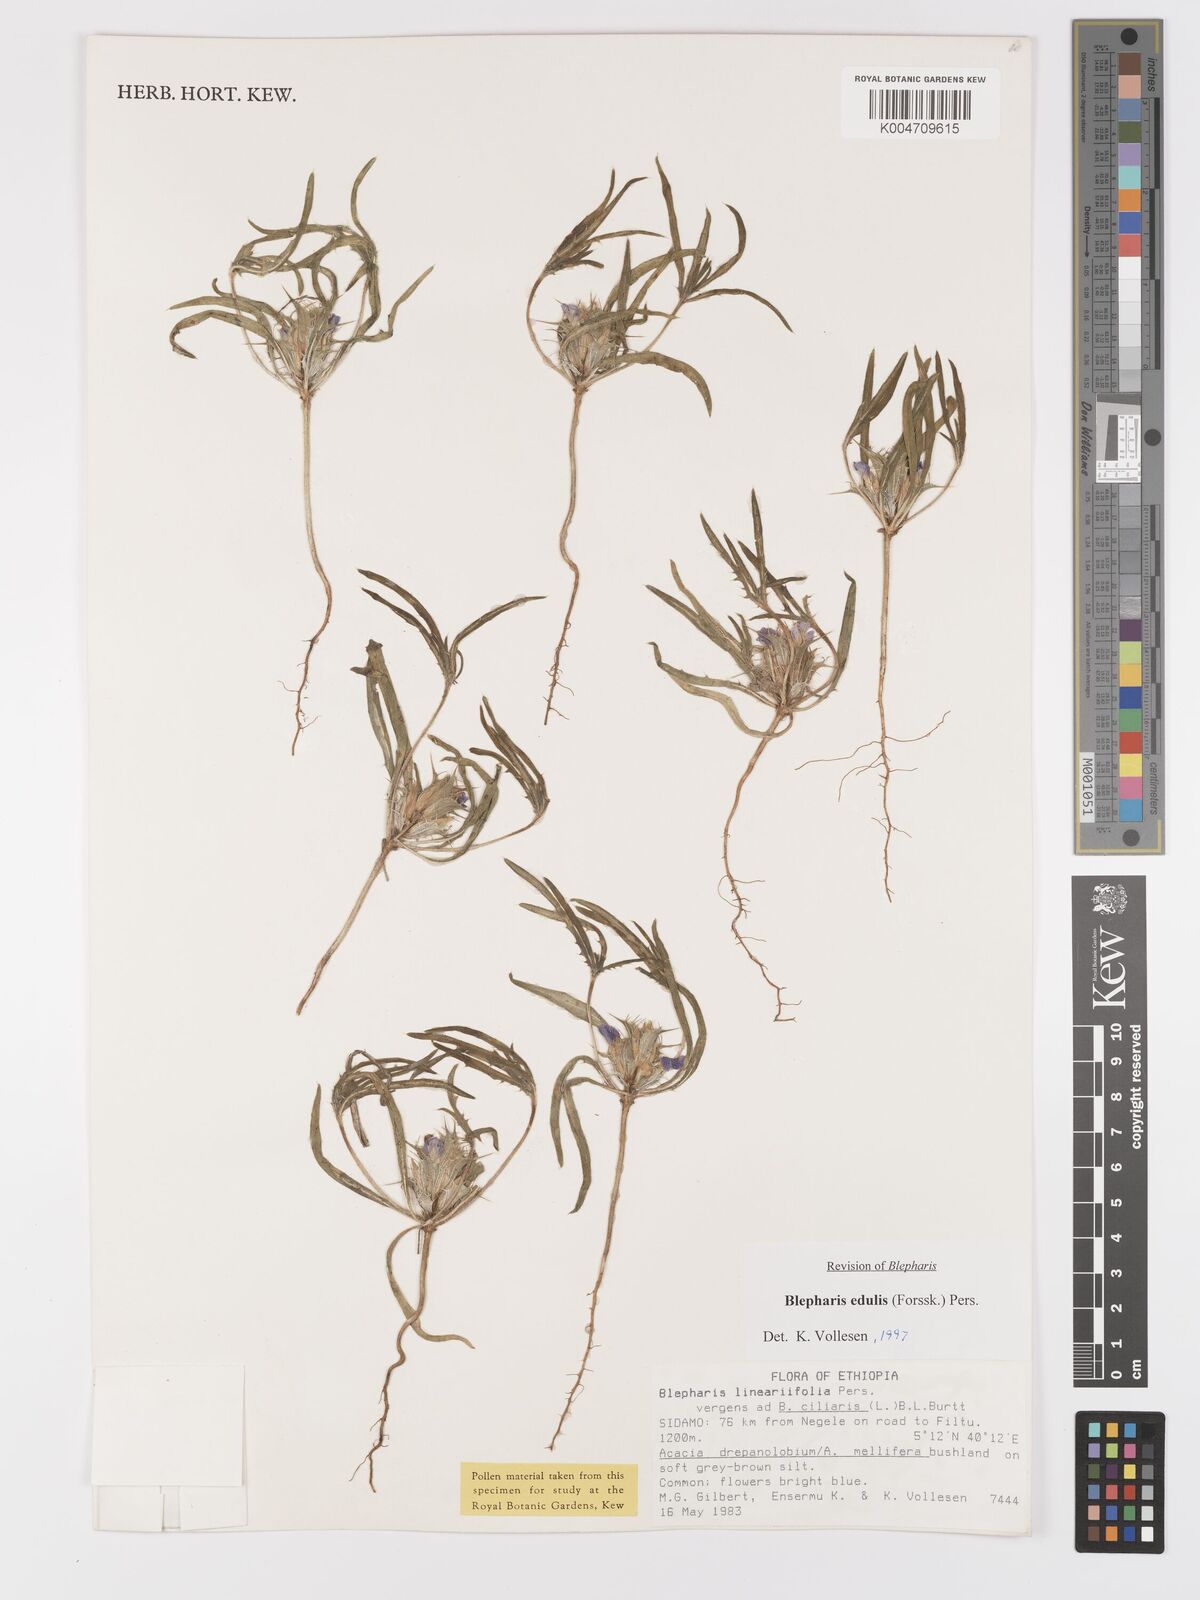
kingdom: Plantae
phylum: Tracheophyta
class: Magnoliopsida
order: Lamiales
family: Acanthaceae
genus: Blepharis
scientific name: Blepharis edulis
